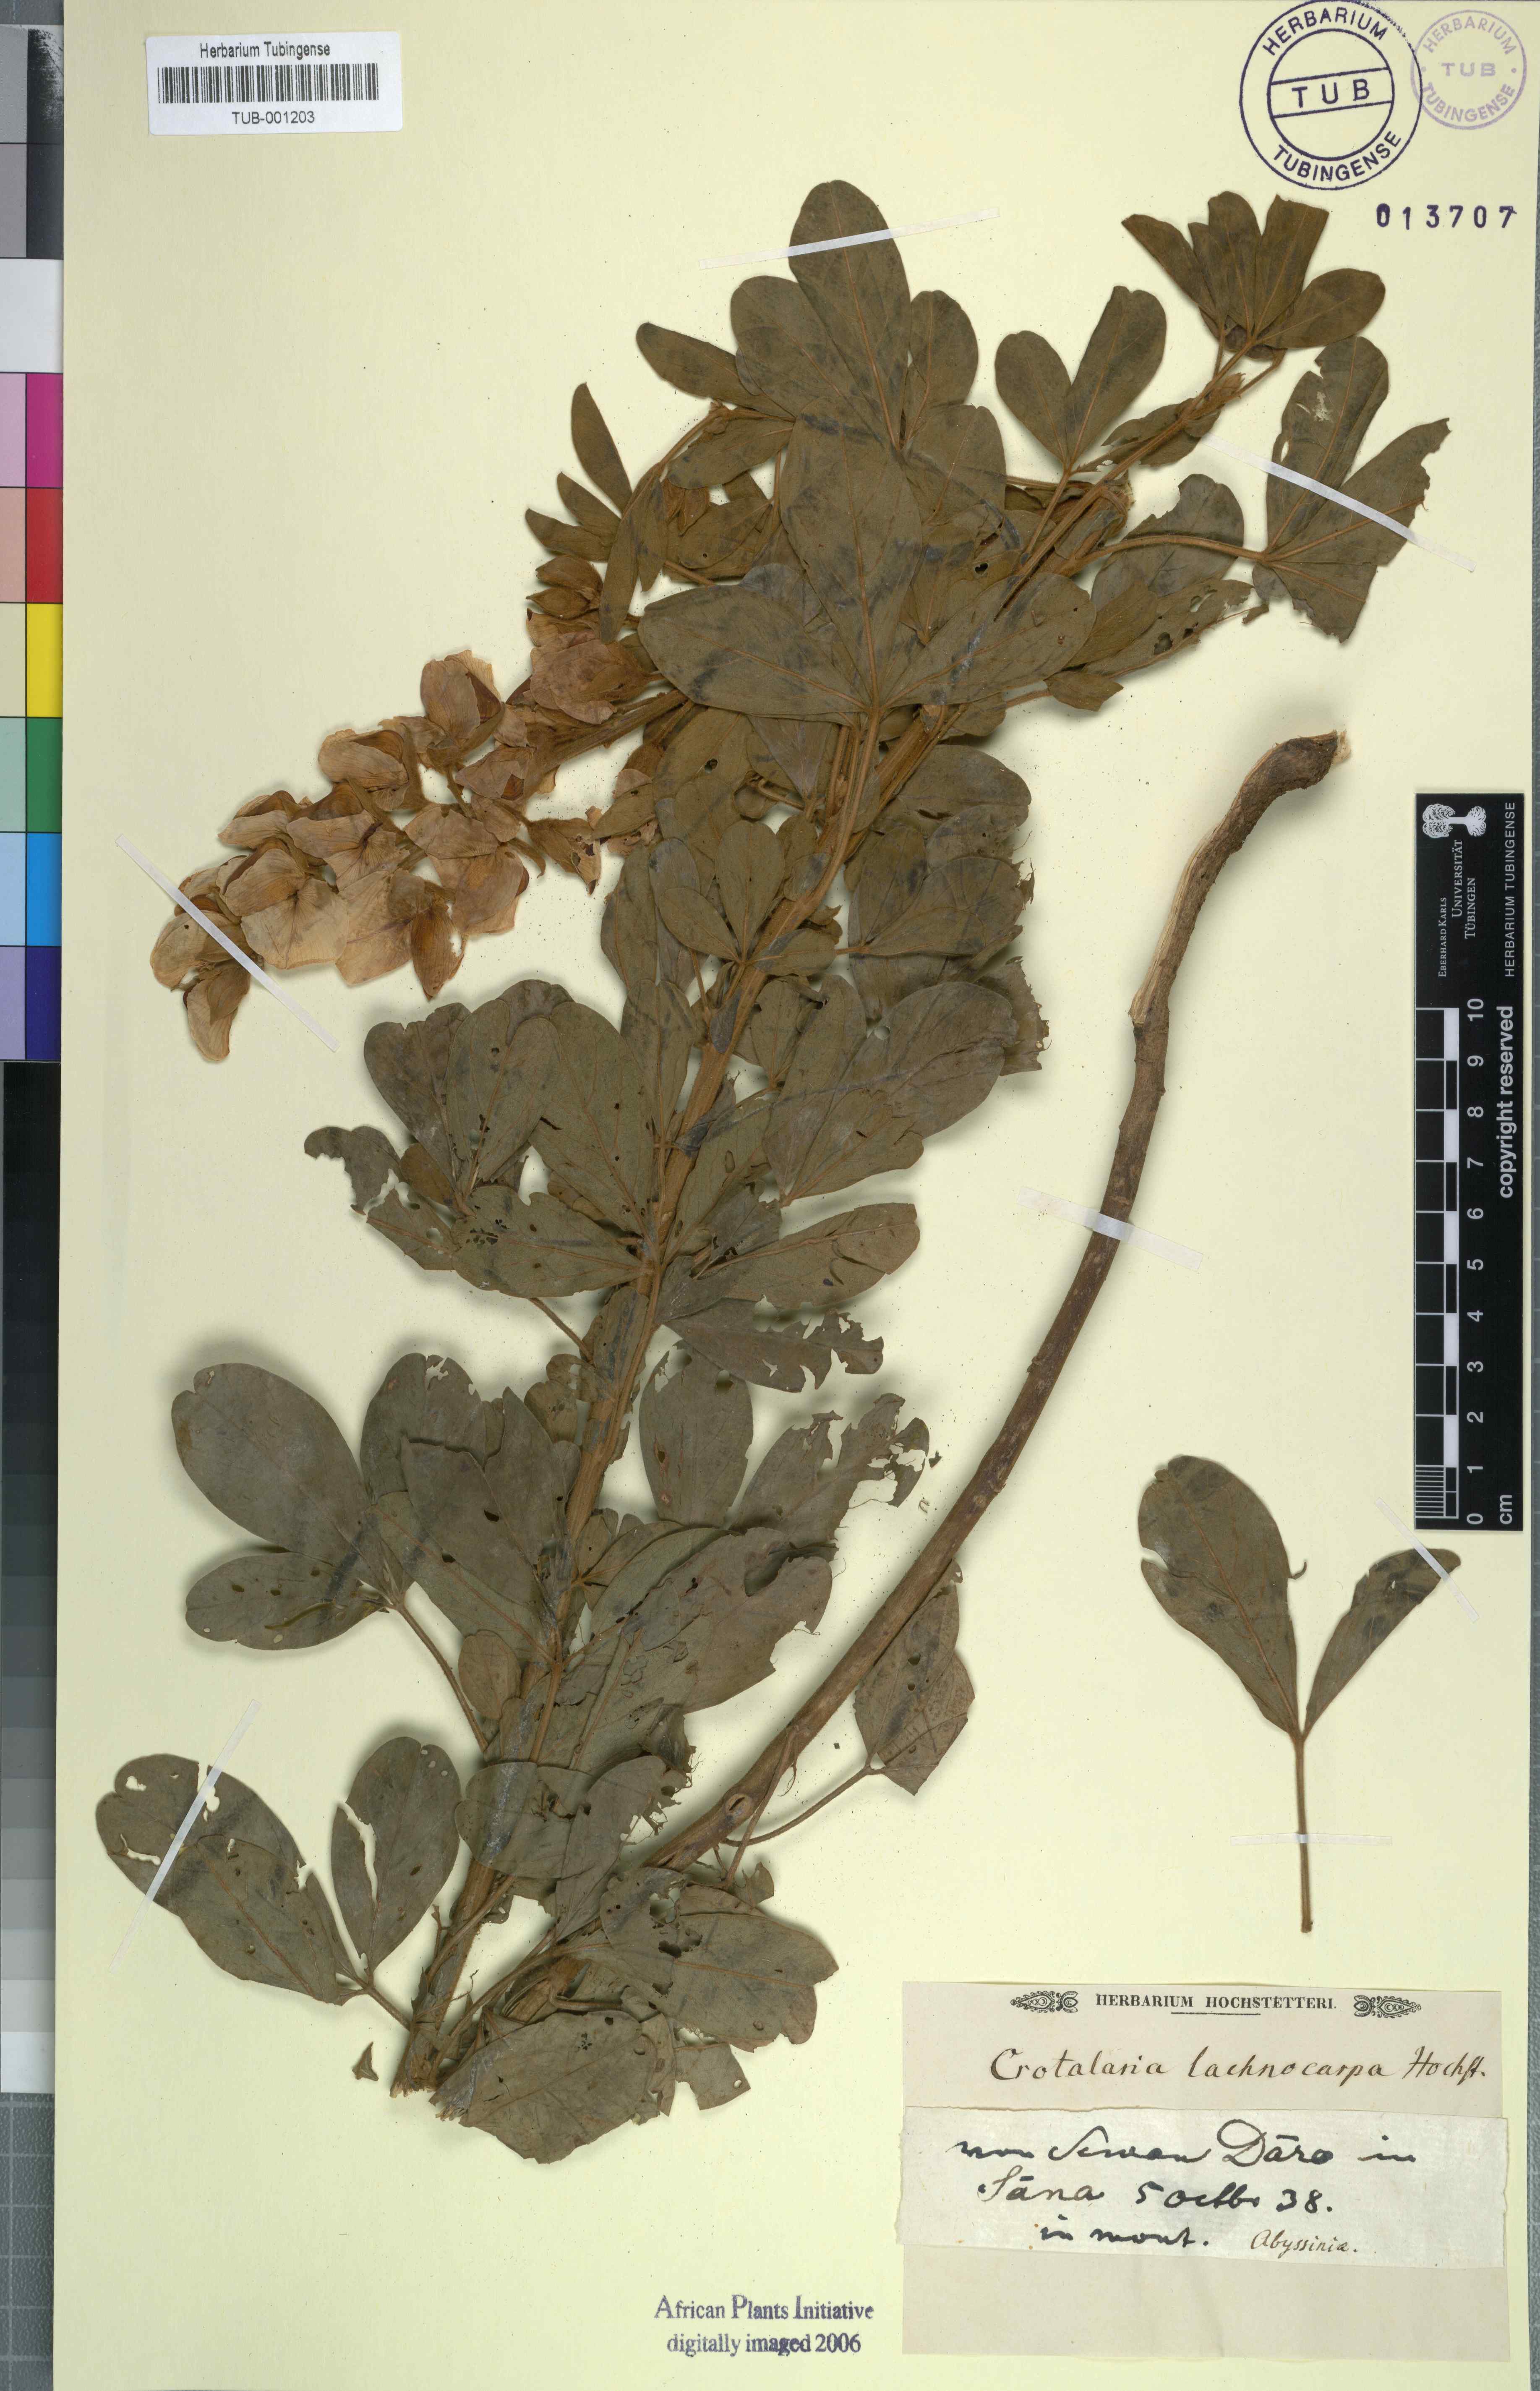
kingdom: Plantae
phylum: Tracheophyta
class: Magnoliopsida
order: Fabales
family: Fabaceae
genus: Crotalaria
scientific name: Crotalaria lachnophora
